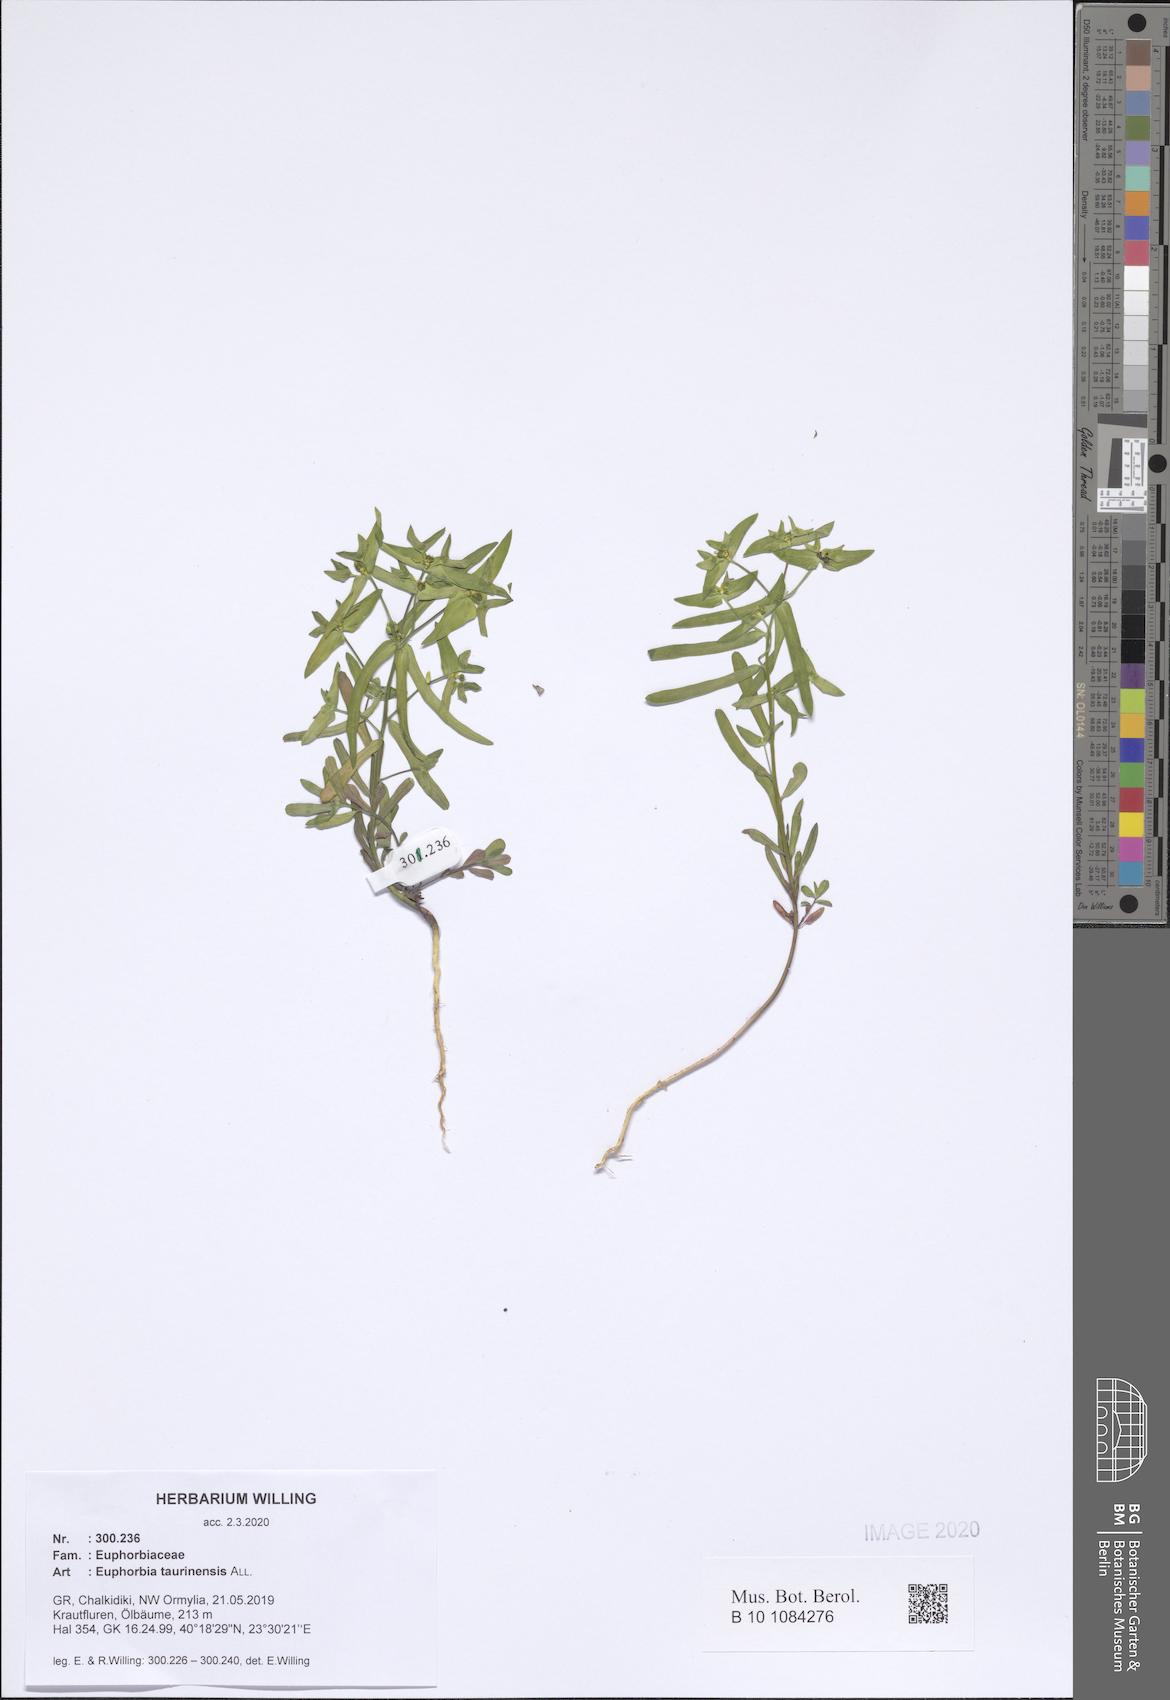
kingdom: Plantae
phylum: Tracheophyta
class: Magnoliopsida
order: Malpighiales
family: Euphorbiaceae
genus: Euphorbia
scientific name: Euphorbia taurinensis
